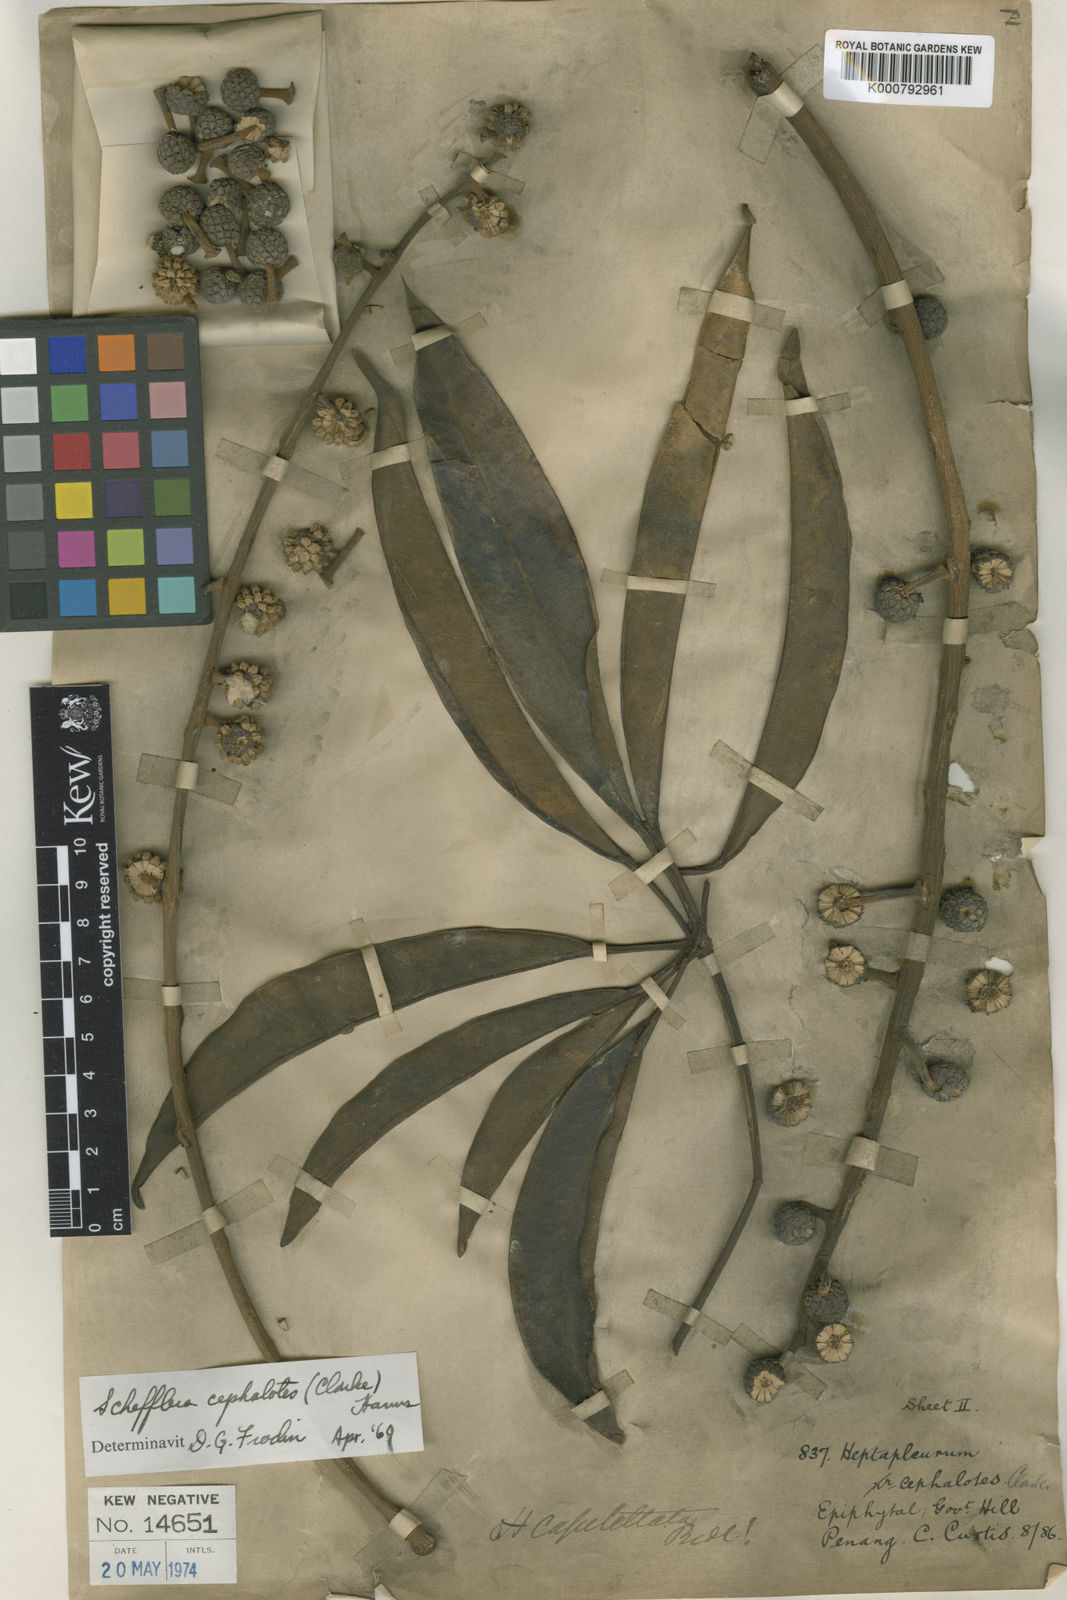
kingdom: Plantae
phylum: Tracheophyta
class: Magnoliopsida
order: Apiales
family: Araliaceae
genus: Heptapleurum
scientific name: Heptapleurum cephalotes
